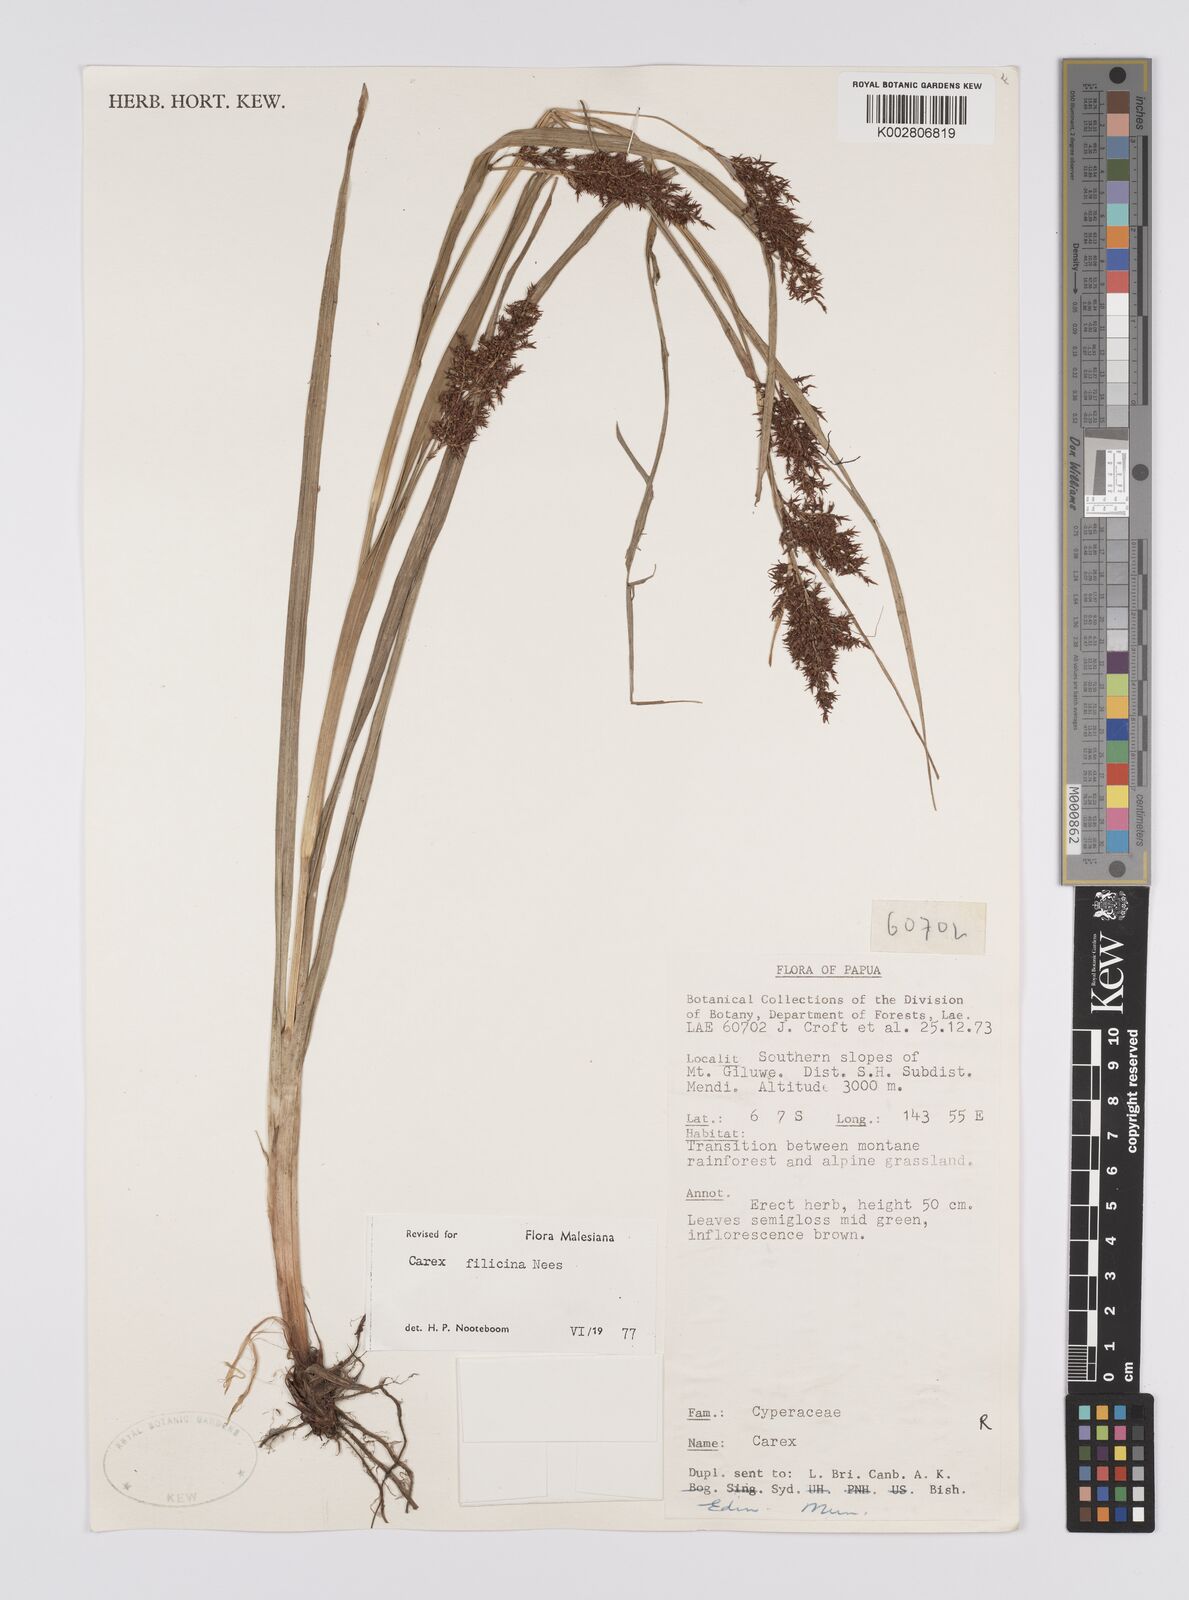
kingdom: Plantae
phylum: Tracheophyta
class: Liliopsida
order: Poales
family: Cyperaceae
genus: Carex
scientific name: Carex filicina
